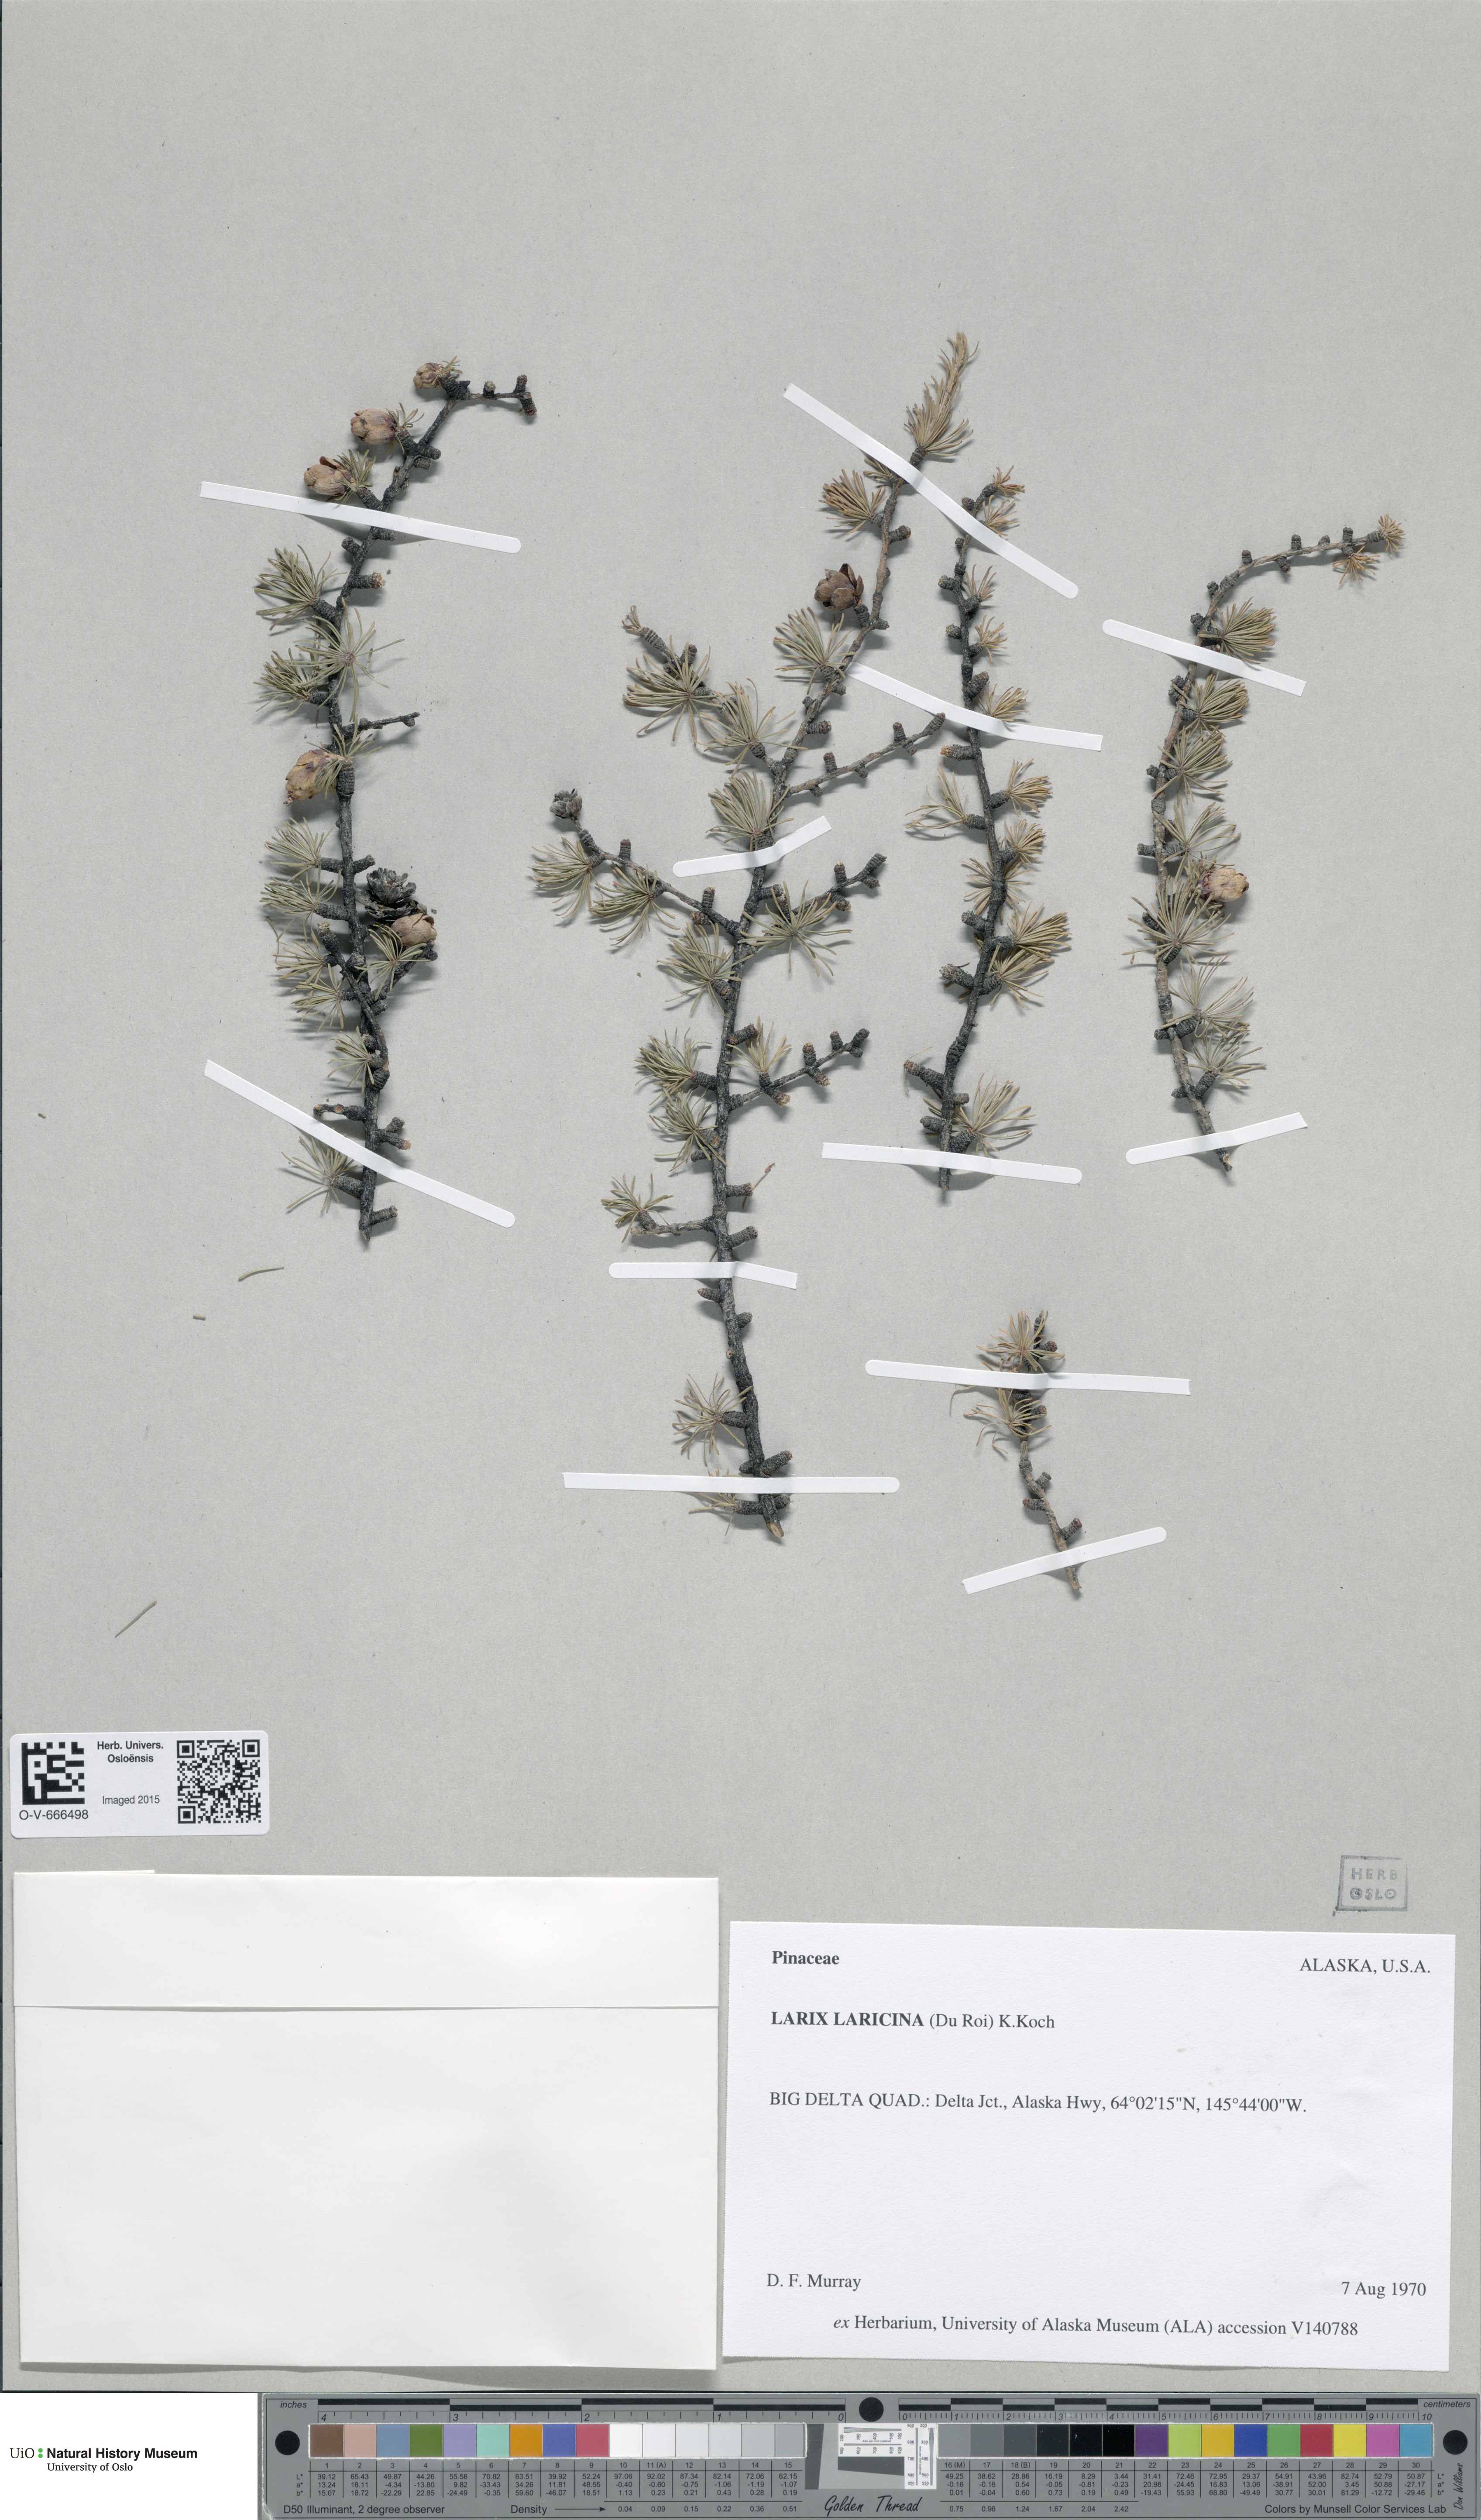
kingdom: Plantae
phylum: Tracheophyta
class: Pinopsida
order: Pinales
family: Pinaceae
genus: Larix
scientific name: Larix laricina
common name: American larch
